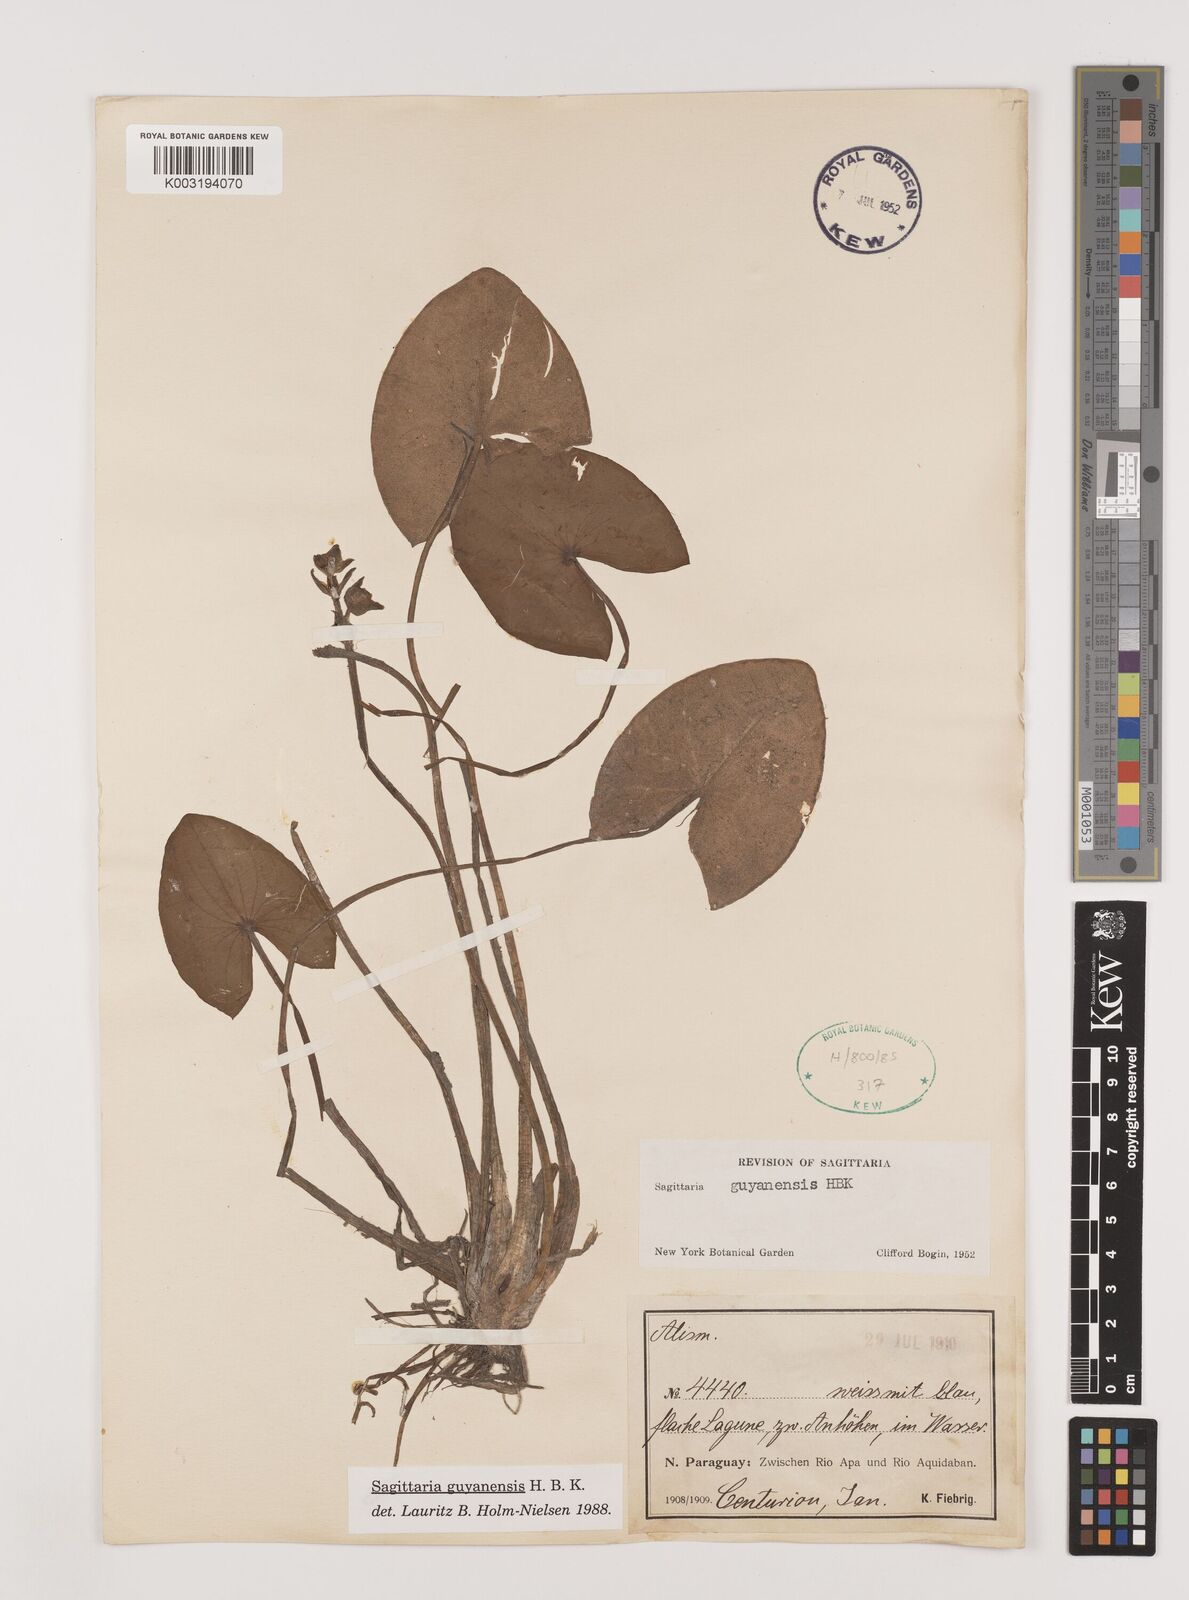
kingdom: Plantae
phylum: Tracheophyta
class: Liliopsida
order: Alismatales
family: Alismataceae
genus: Sagittaria
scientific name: Sagittaria guayanensis
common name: Guyanese arrowhead
